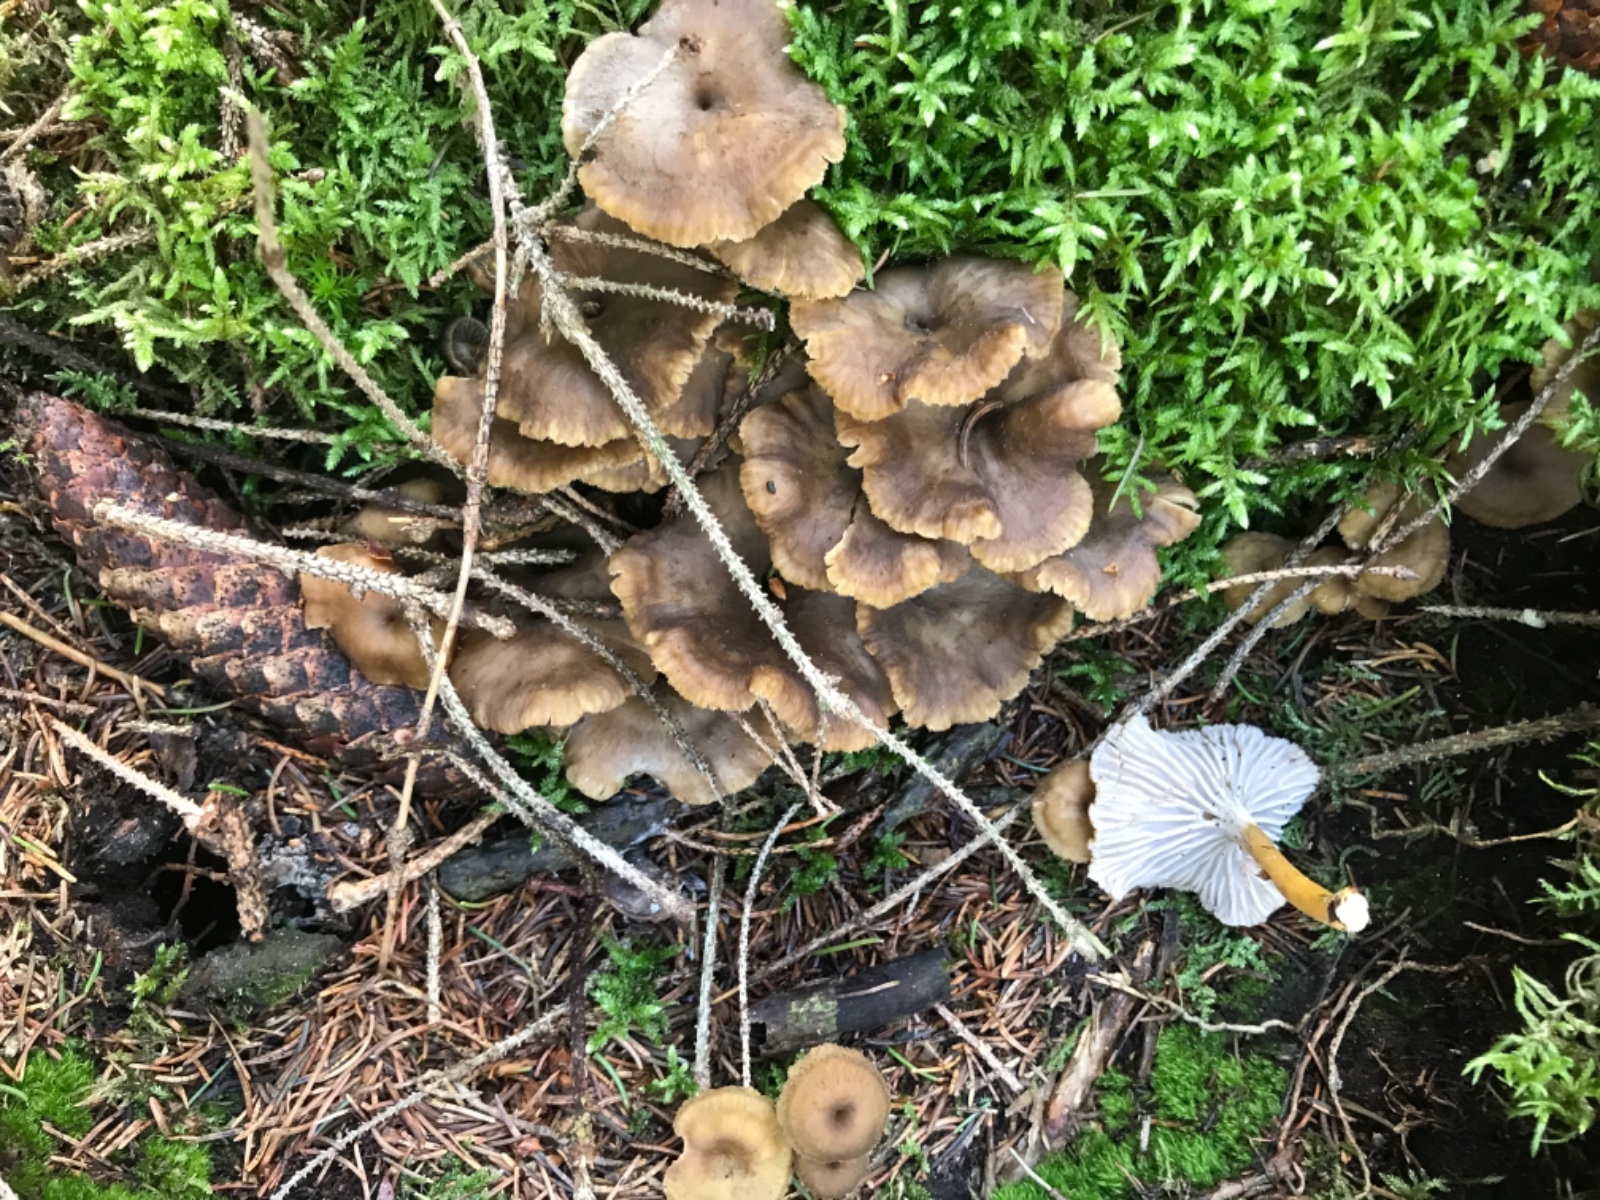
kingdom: Fungi
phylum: Basidiomycota
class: Agaricomycetes
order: Cantharellales
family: Hydnaceae
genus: Craterellus
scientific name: Craterellus tubaeformis
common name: tragt-kantarel
